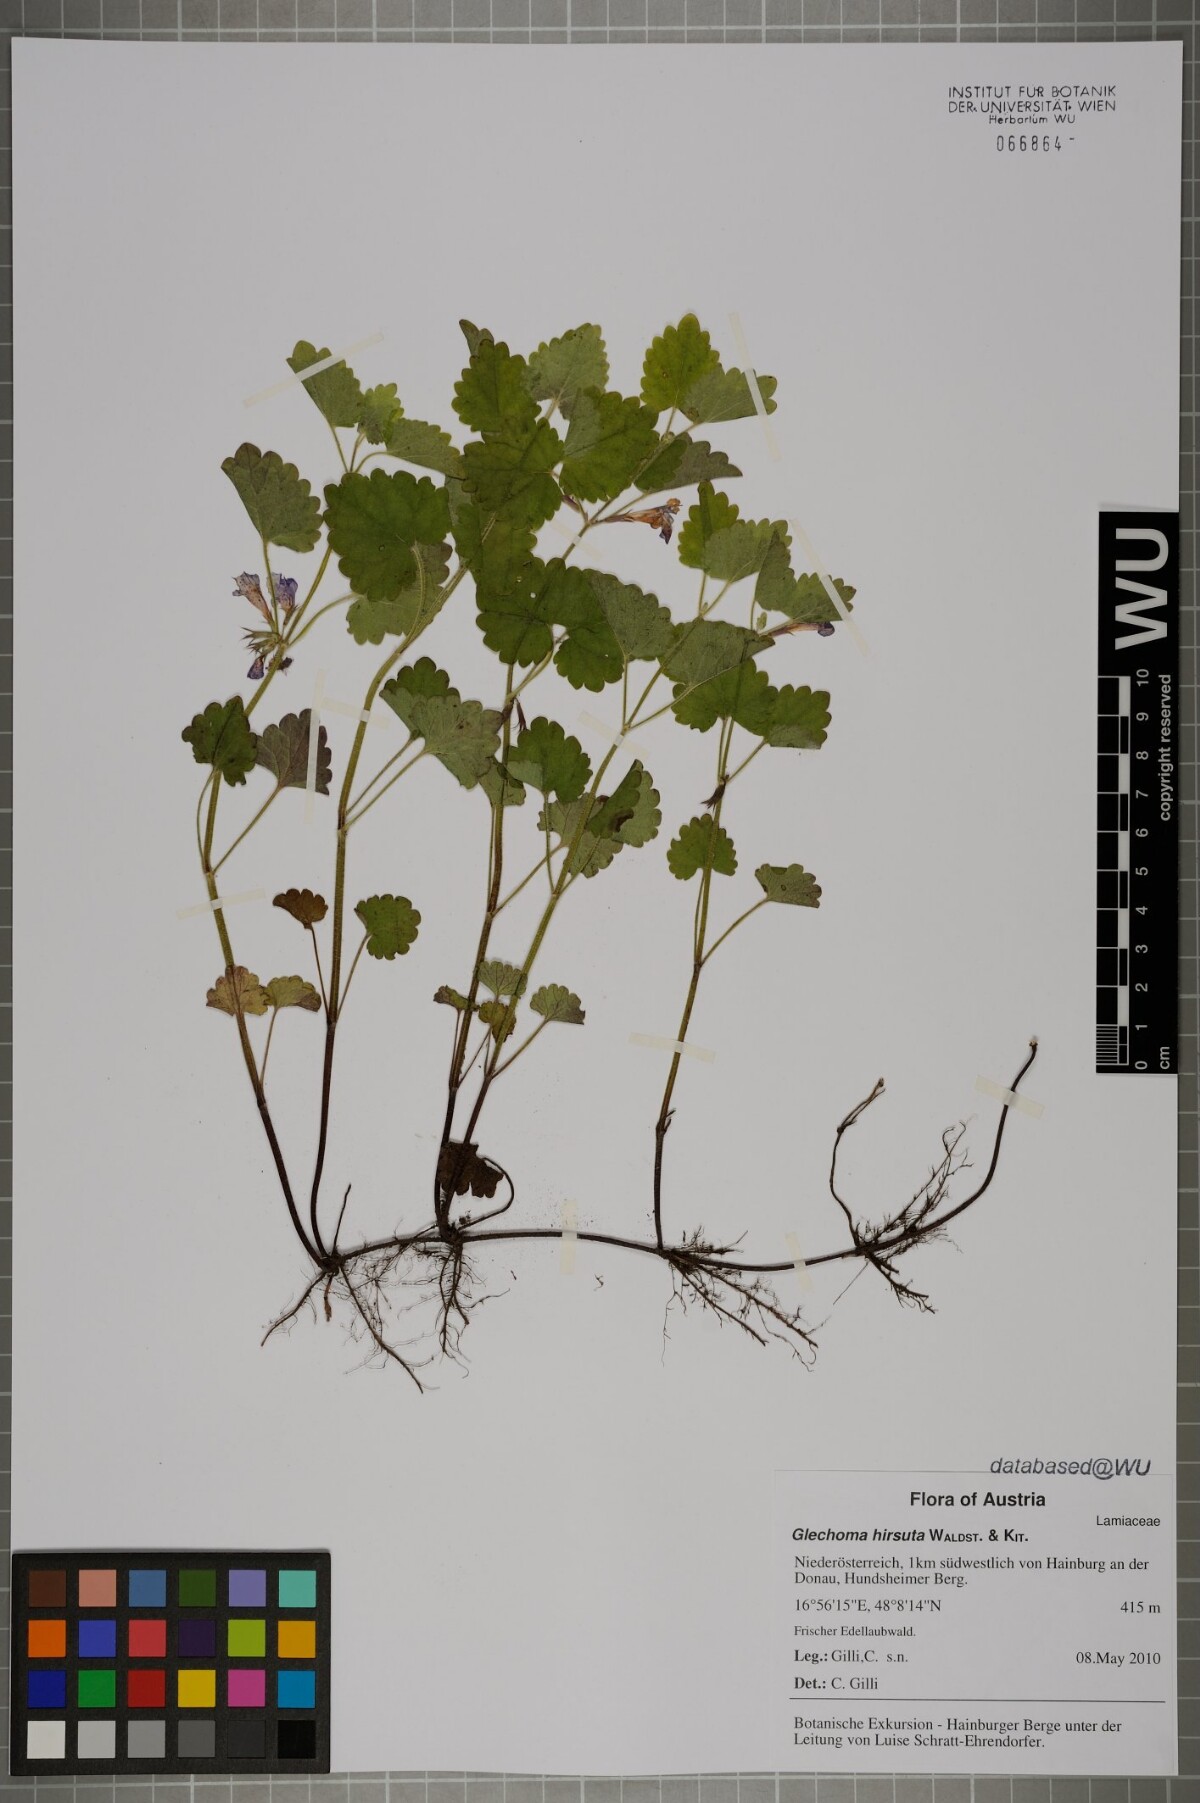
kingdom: Plantae
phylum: Tracheophyta
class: Magnoliopsida
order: Lamiales
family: Lamiaceae
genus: Glechoma
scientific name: Glechoma hirsuta
